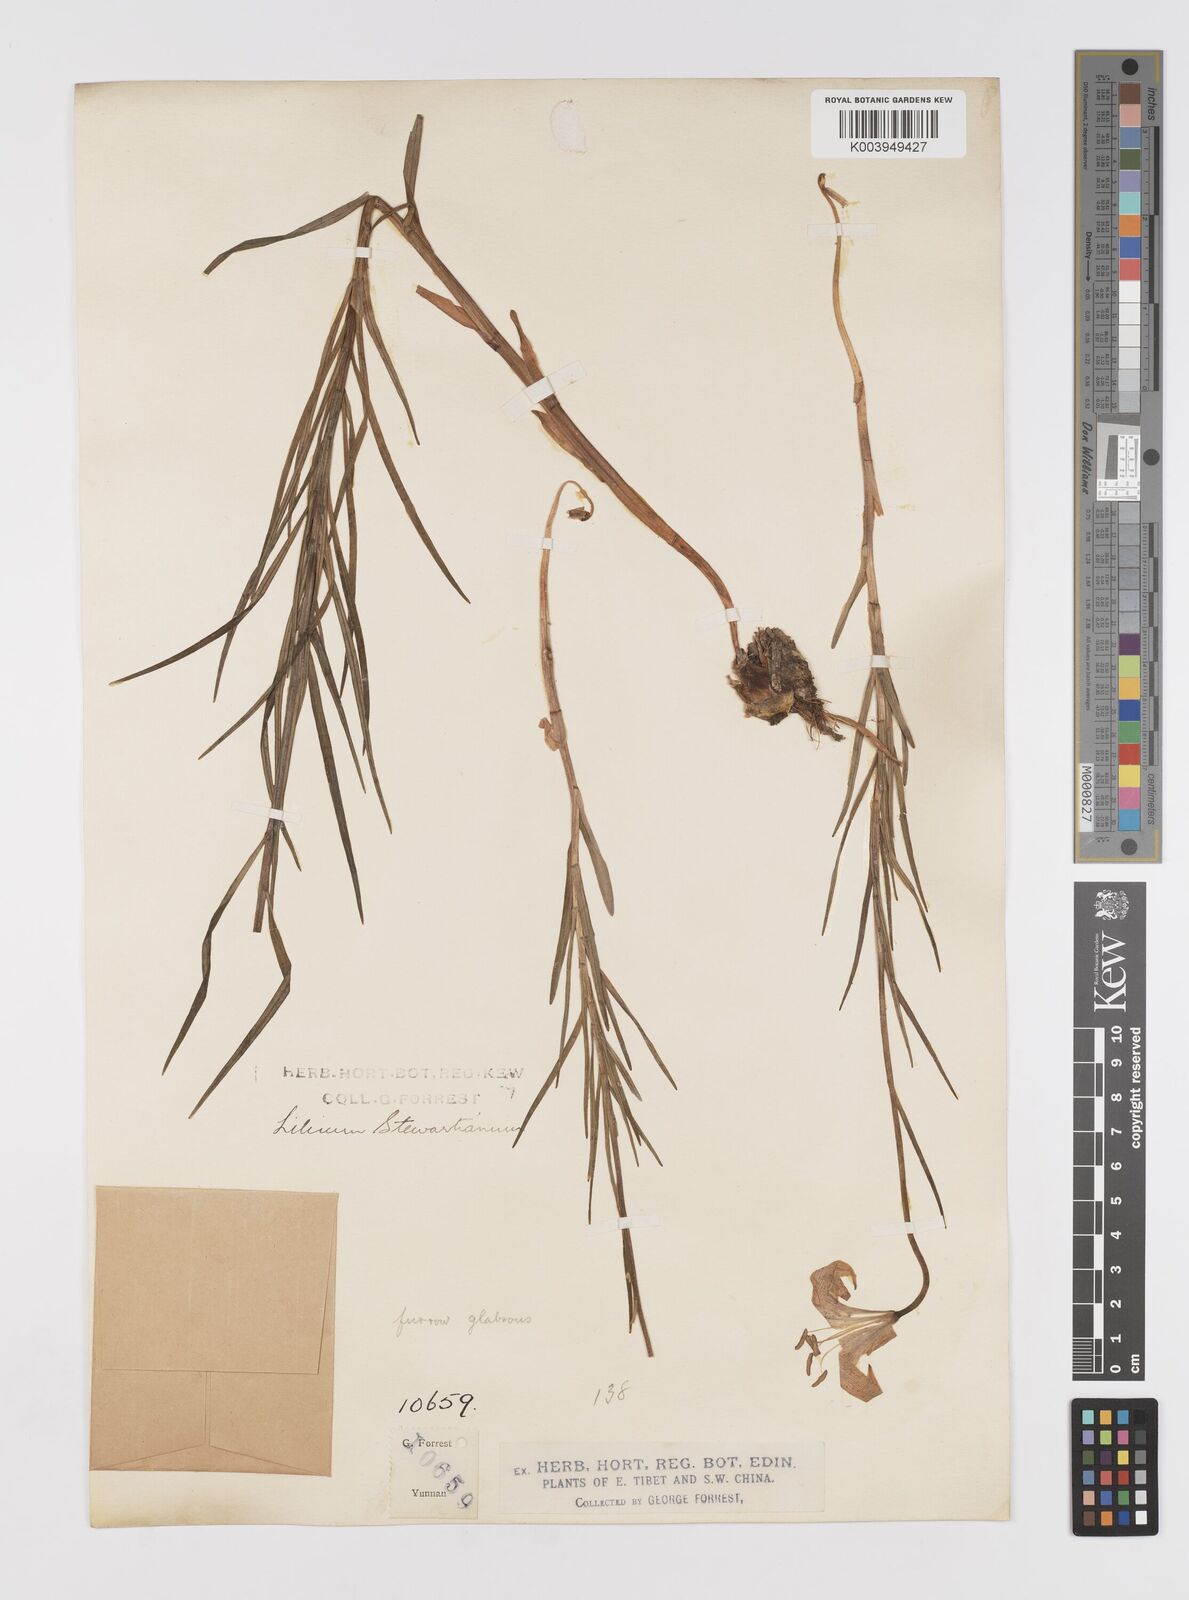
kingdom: Plantae
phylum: Tracheophyta
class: Liliopsida
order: Liliales
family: Liliaceae
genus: Lilium
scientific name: Lilium stewartianum
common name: Stewart's lily
